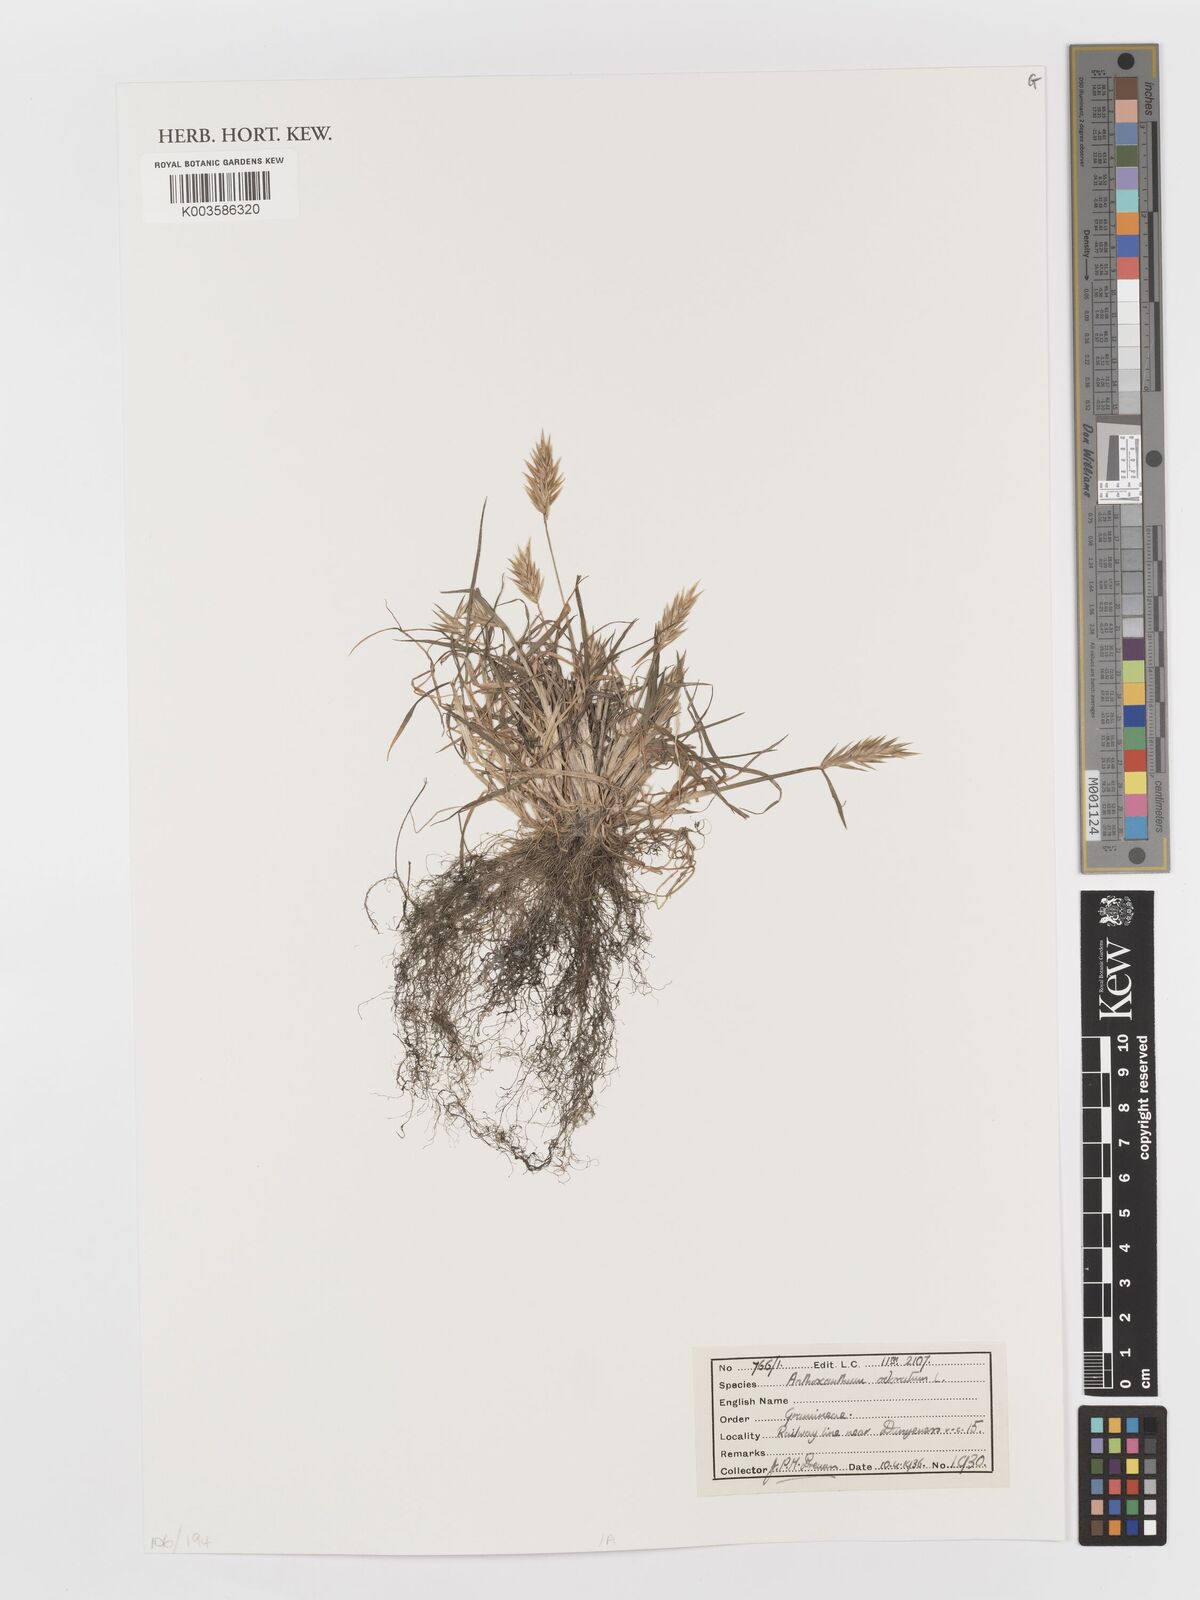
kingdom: Plantae
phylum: Tracheophyta
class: Liliopsida
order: Poales
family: Poaceae
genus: Anthoxanthum
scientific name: Anthoxanthum odoratum
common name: Sweet vernalgrass
